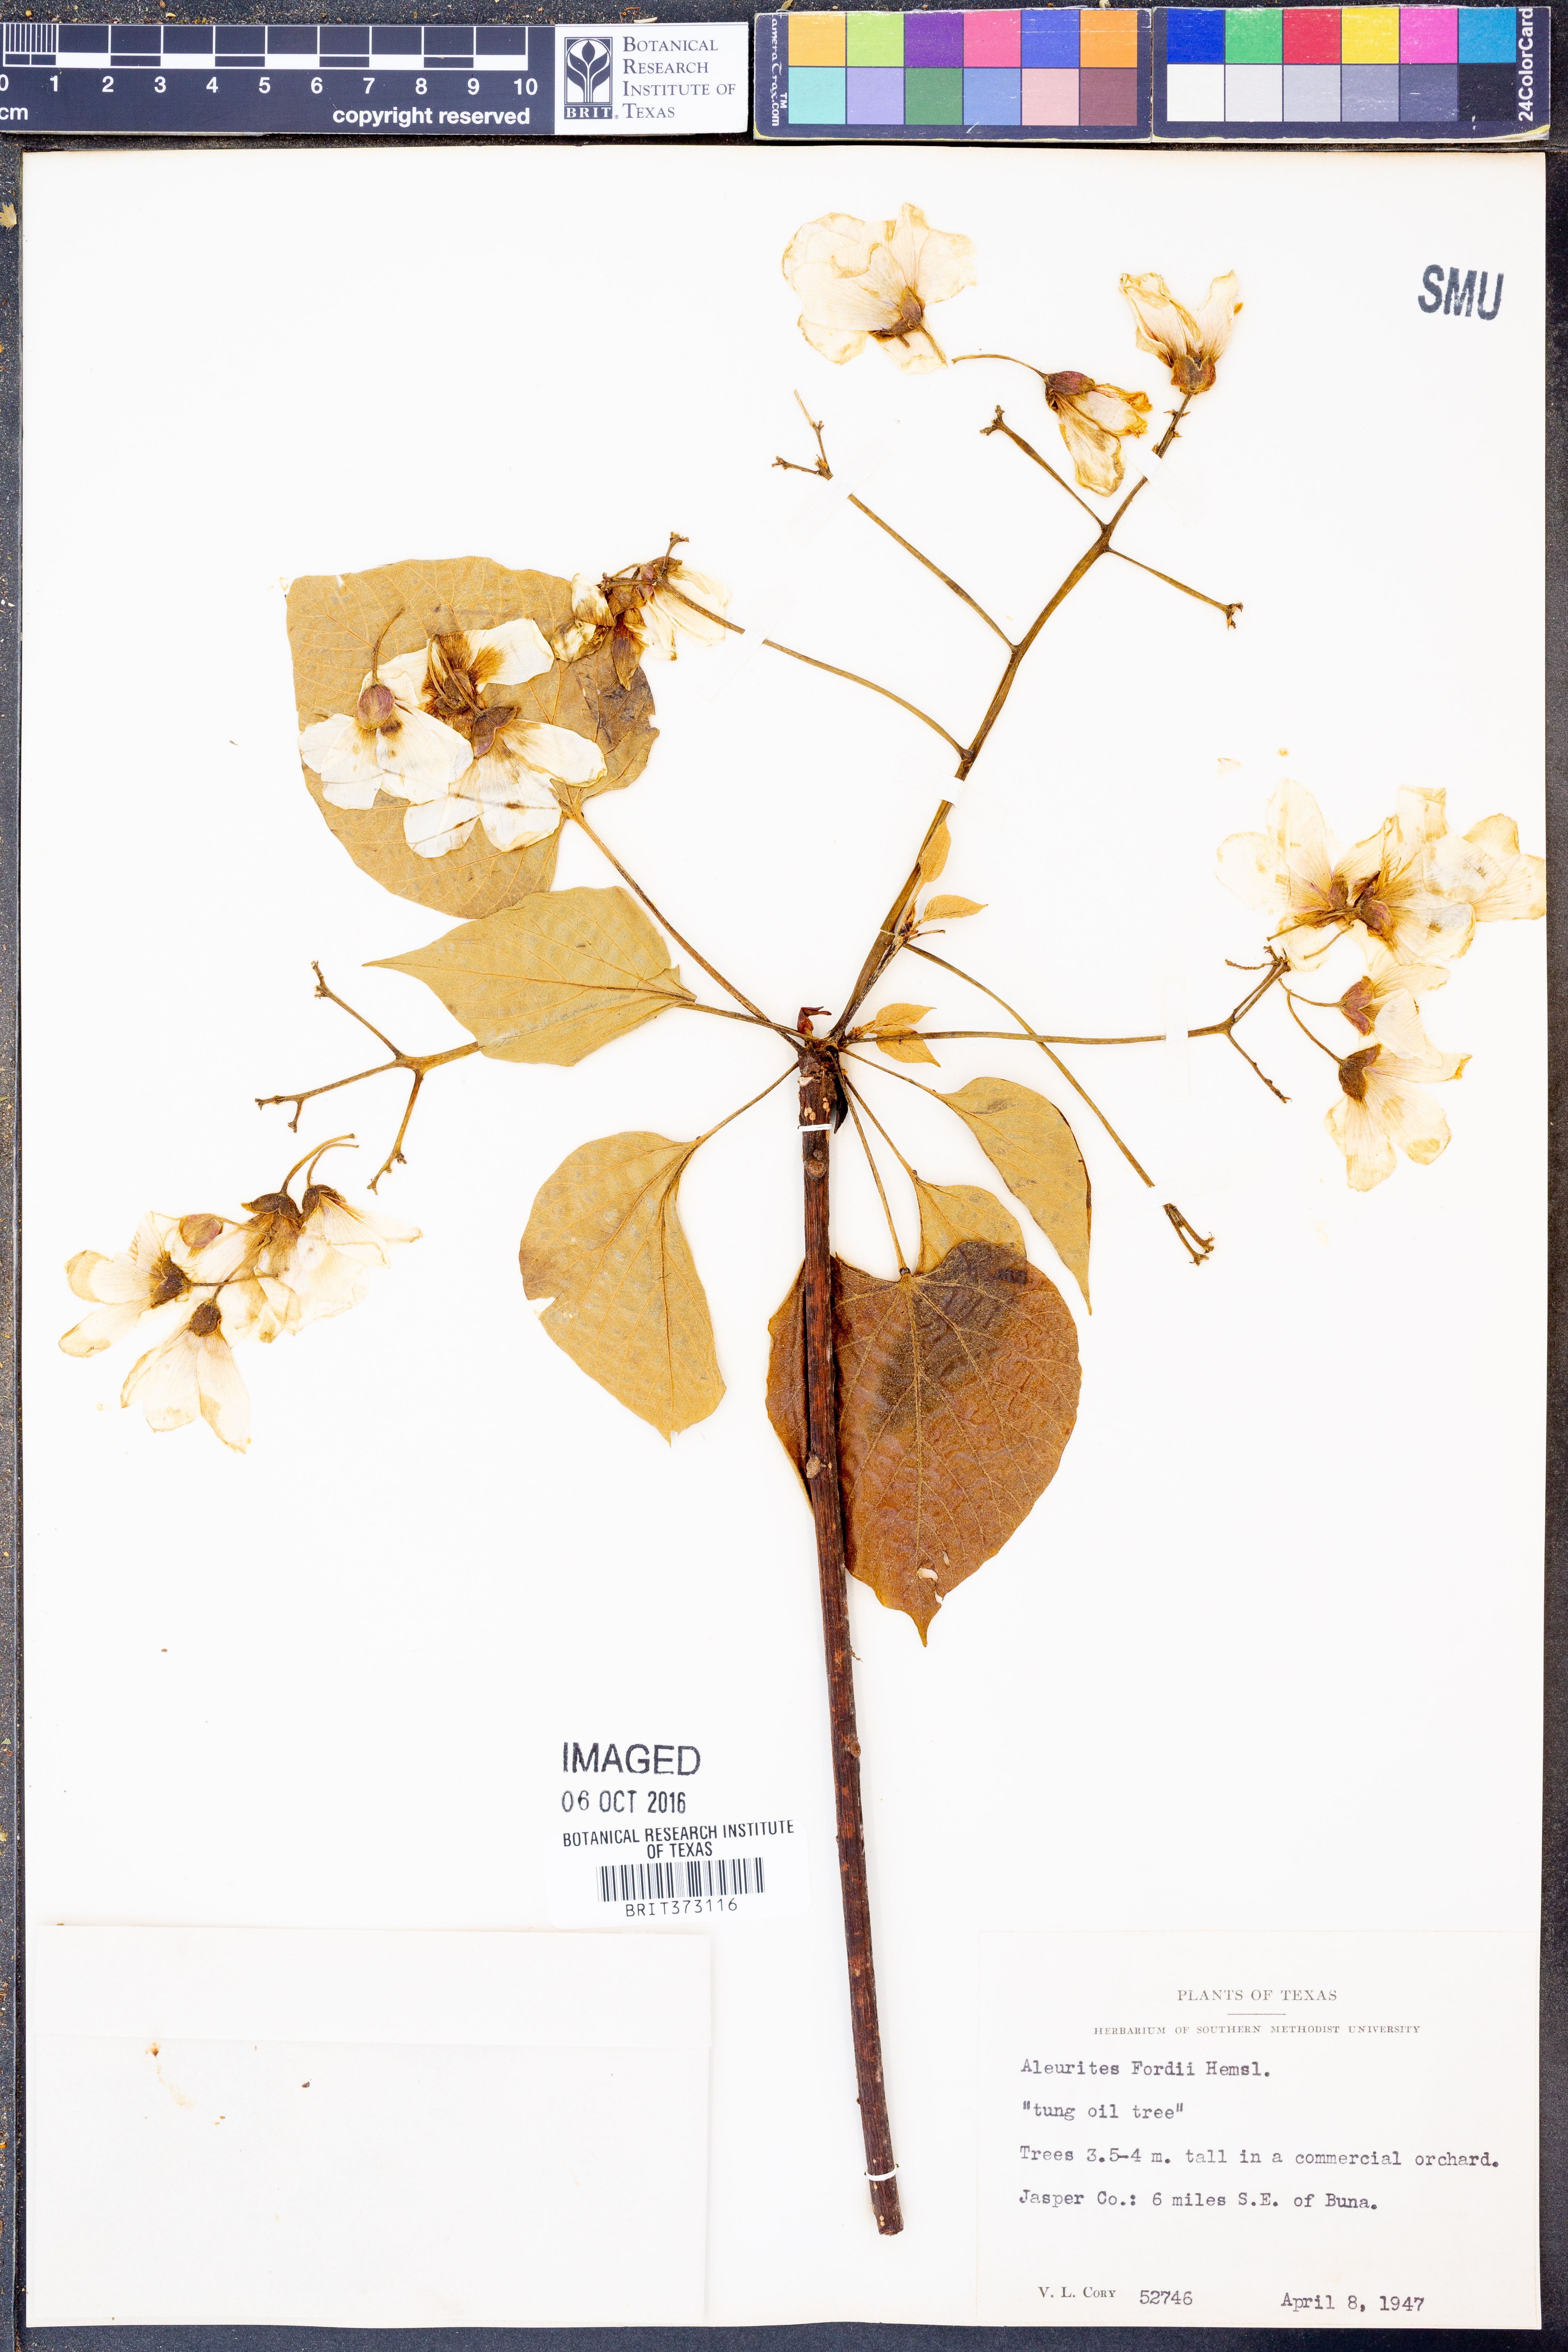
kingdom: Plantae
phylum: Tracheophyta
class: Magnoliopsida
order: Malpighiales
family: Euphorbiaceae
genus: Vernicia
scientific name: Vernicia fordii
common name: Tungoil tree
